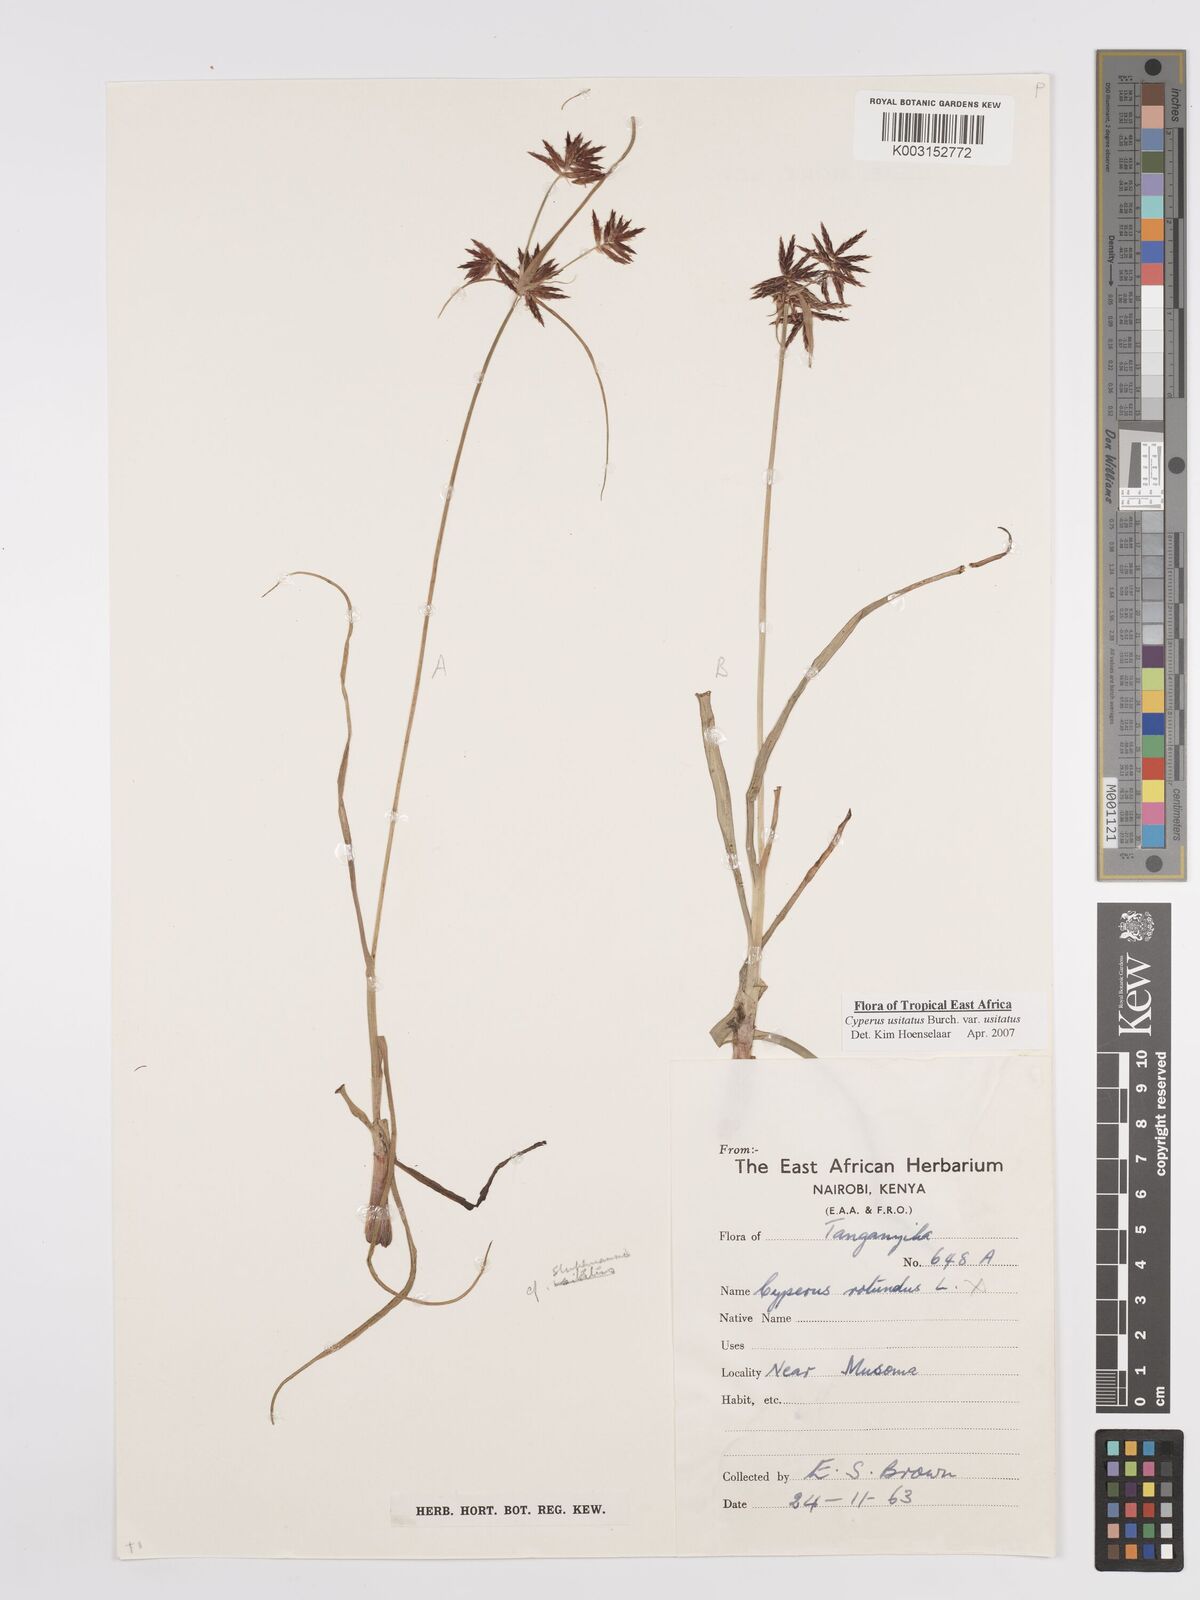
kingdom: Plantae
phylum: Tracheophyta
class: Liliopsida
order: Poales
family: Cyperaceae
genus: Cyperus
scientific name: Cyperus usitatus
